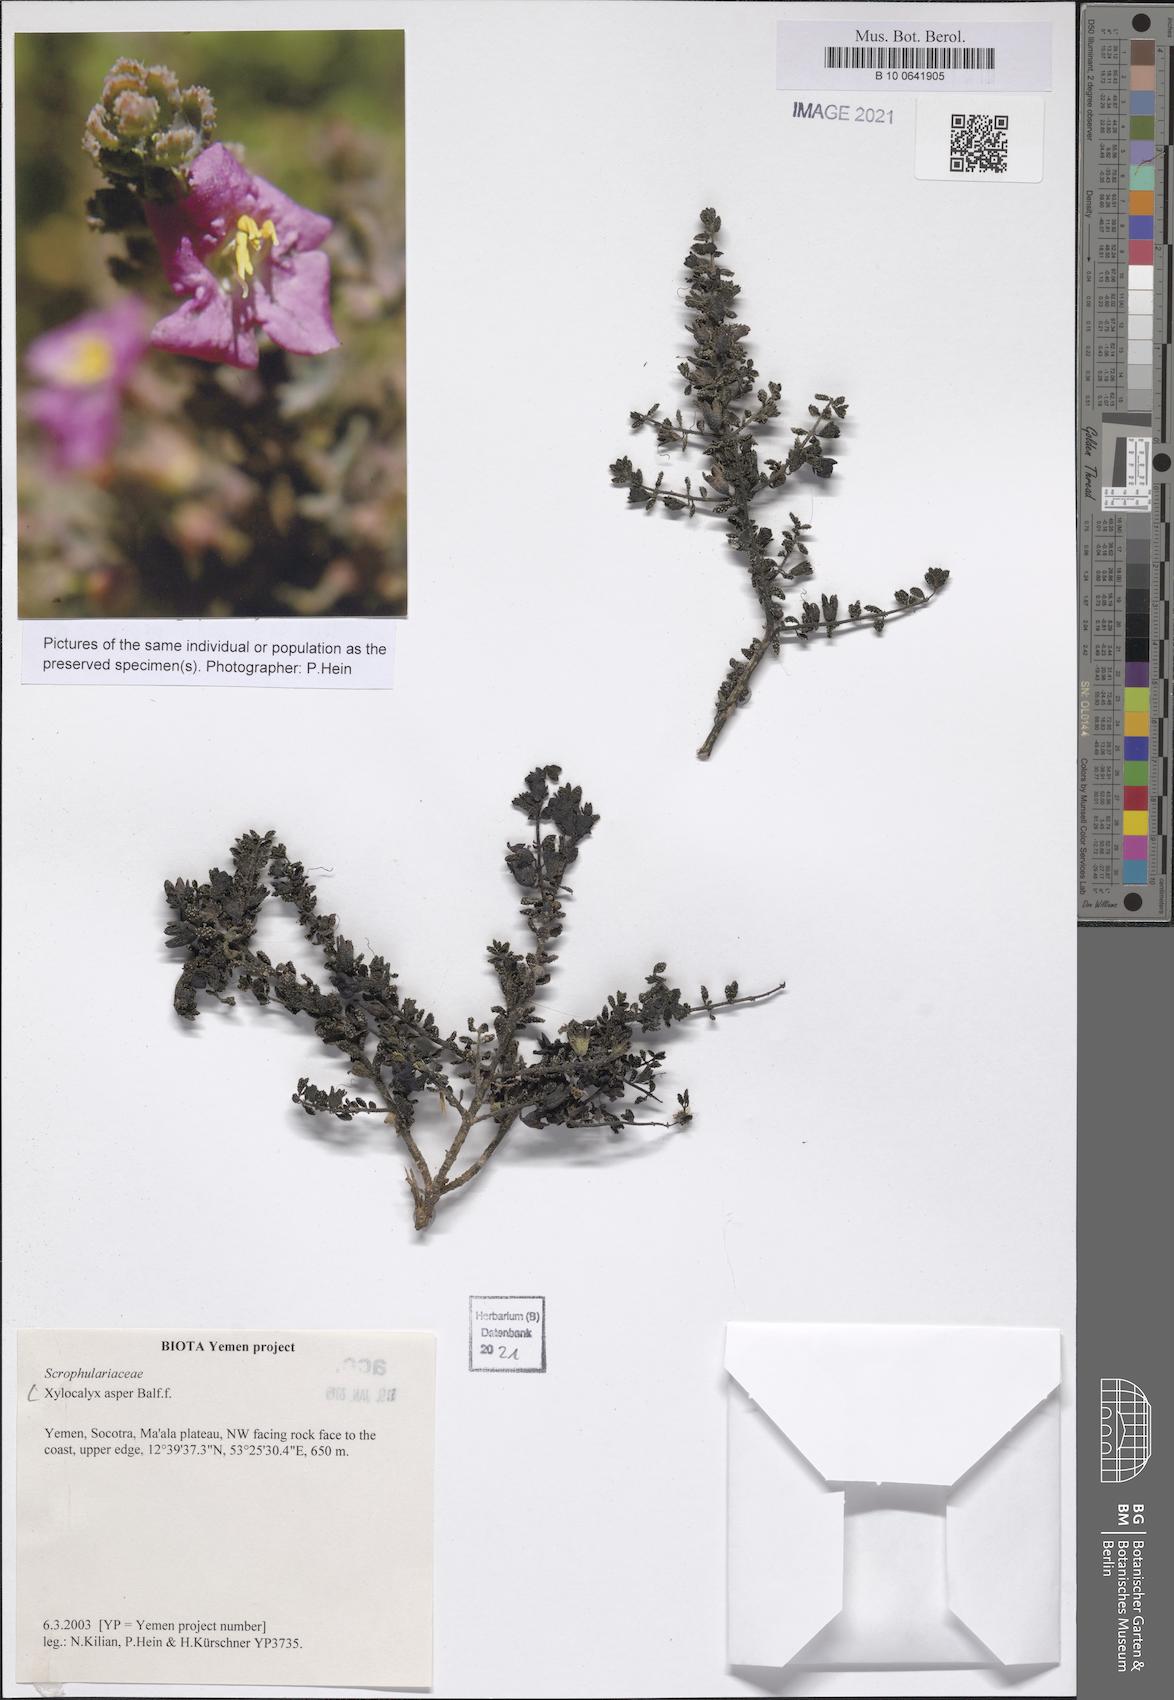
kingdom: Plantae
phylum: Tracheophyta
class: Magnoliopsida
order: Lamiales
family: Orobanchaceae
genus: Xylocalyx
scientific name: Xylocalyx asper
